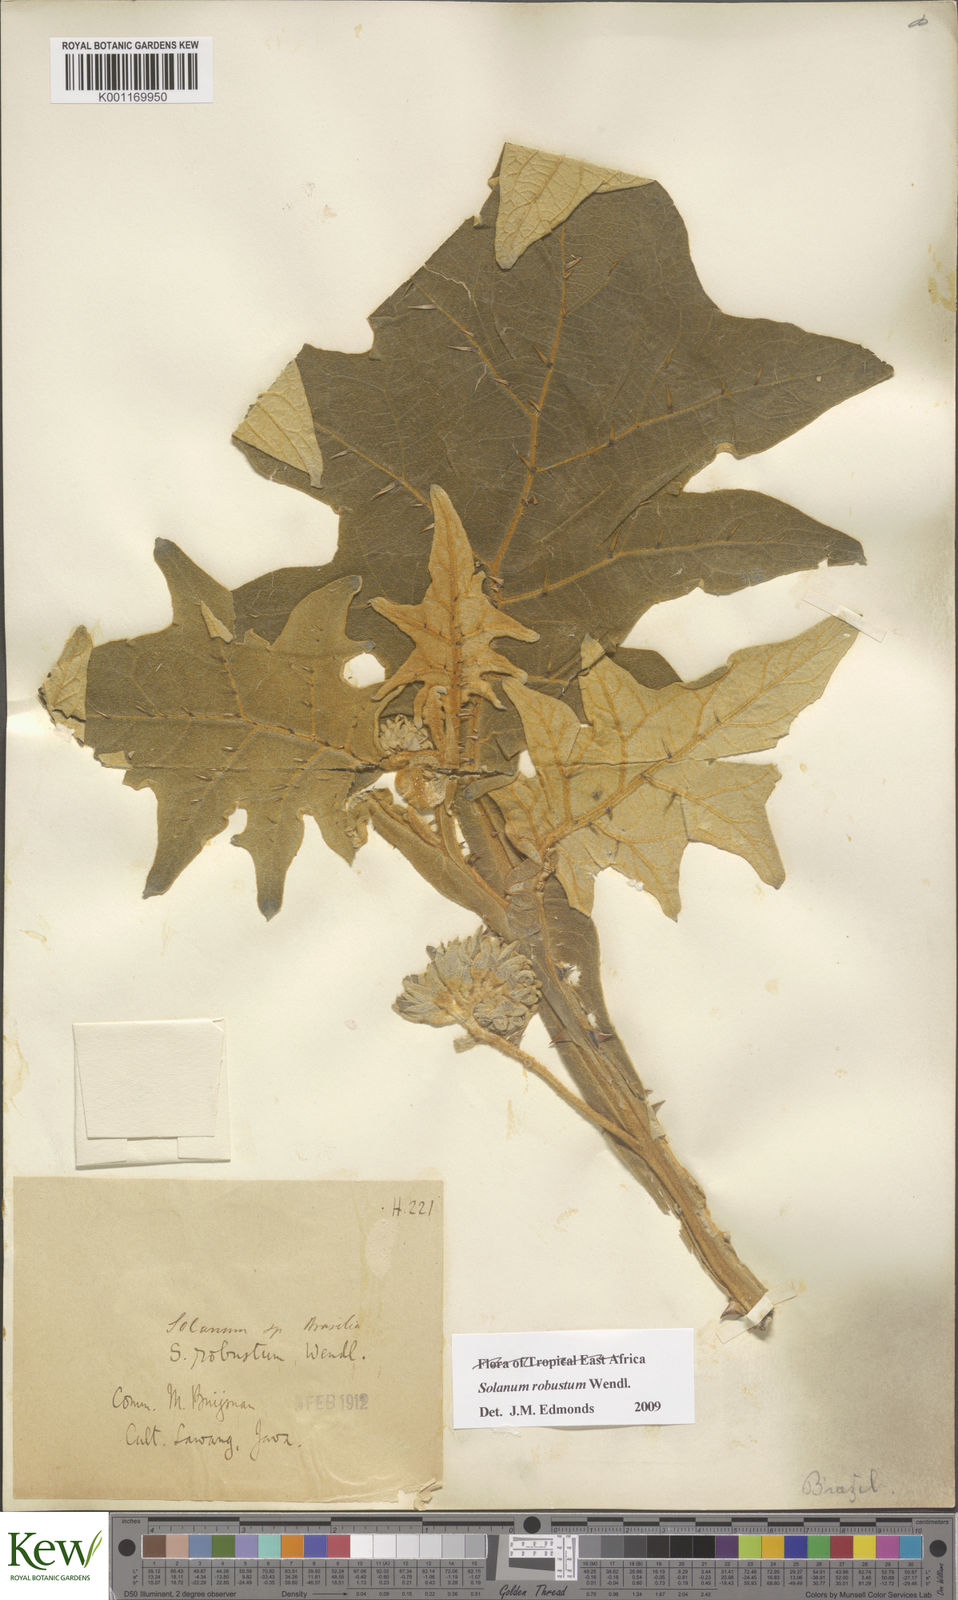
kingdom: Plantae
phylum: Tracheophyta
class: Magnoliopsida
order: Solanales
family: Solanaceae
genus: Solanum
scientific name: Solanum robustum
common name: Shrubby nightshade
